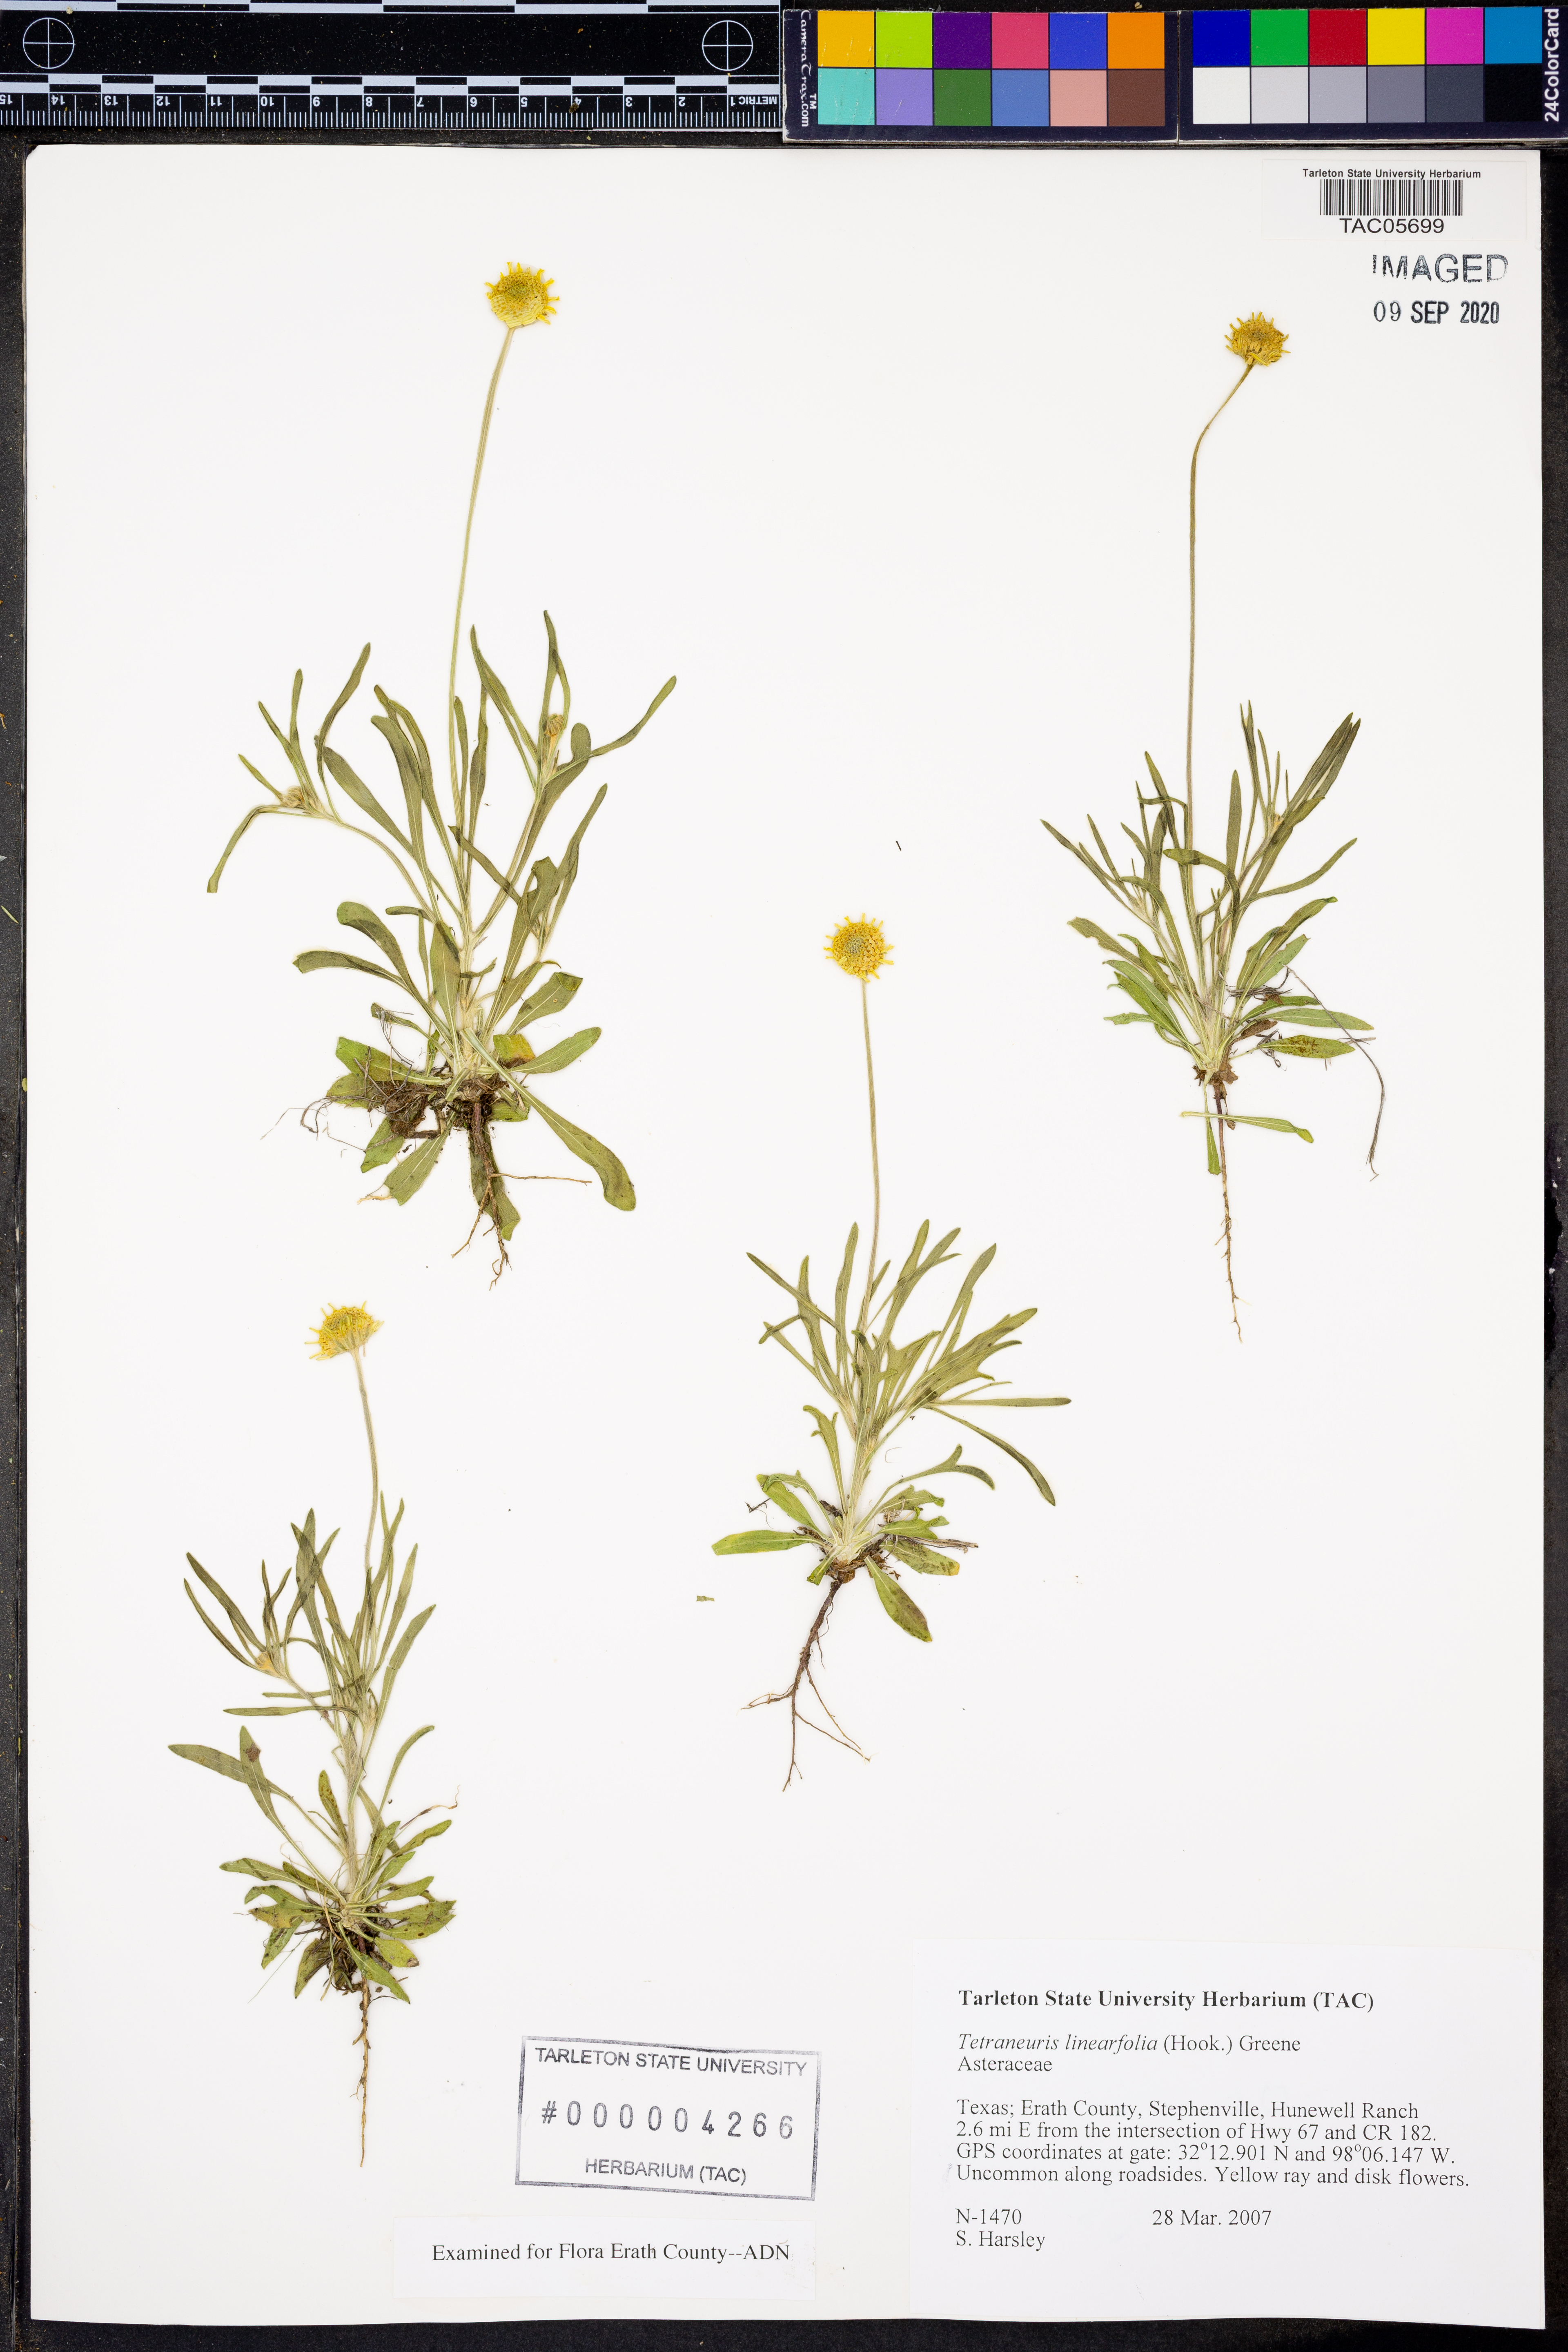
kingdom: Plantae
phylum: Tracheophyta
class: Magnoliopsida
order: Asterales
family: Asteraceae
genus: Tetraneuris
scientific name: Tetraneuris linearifolia
